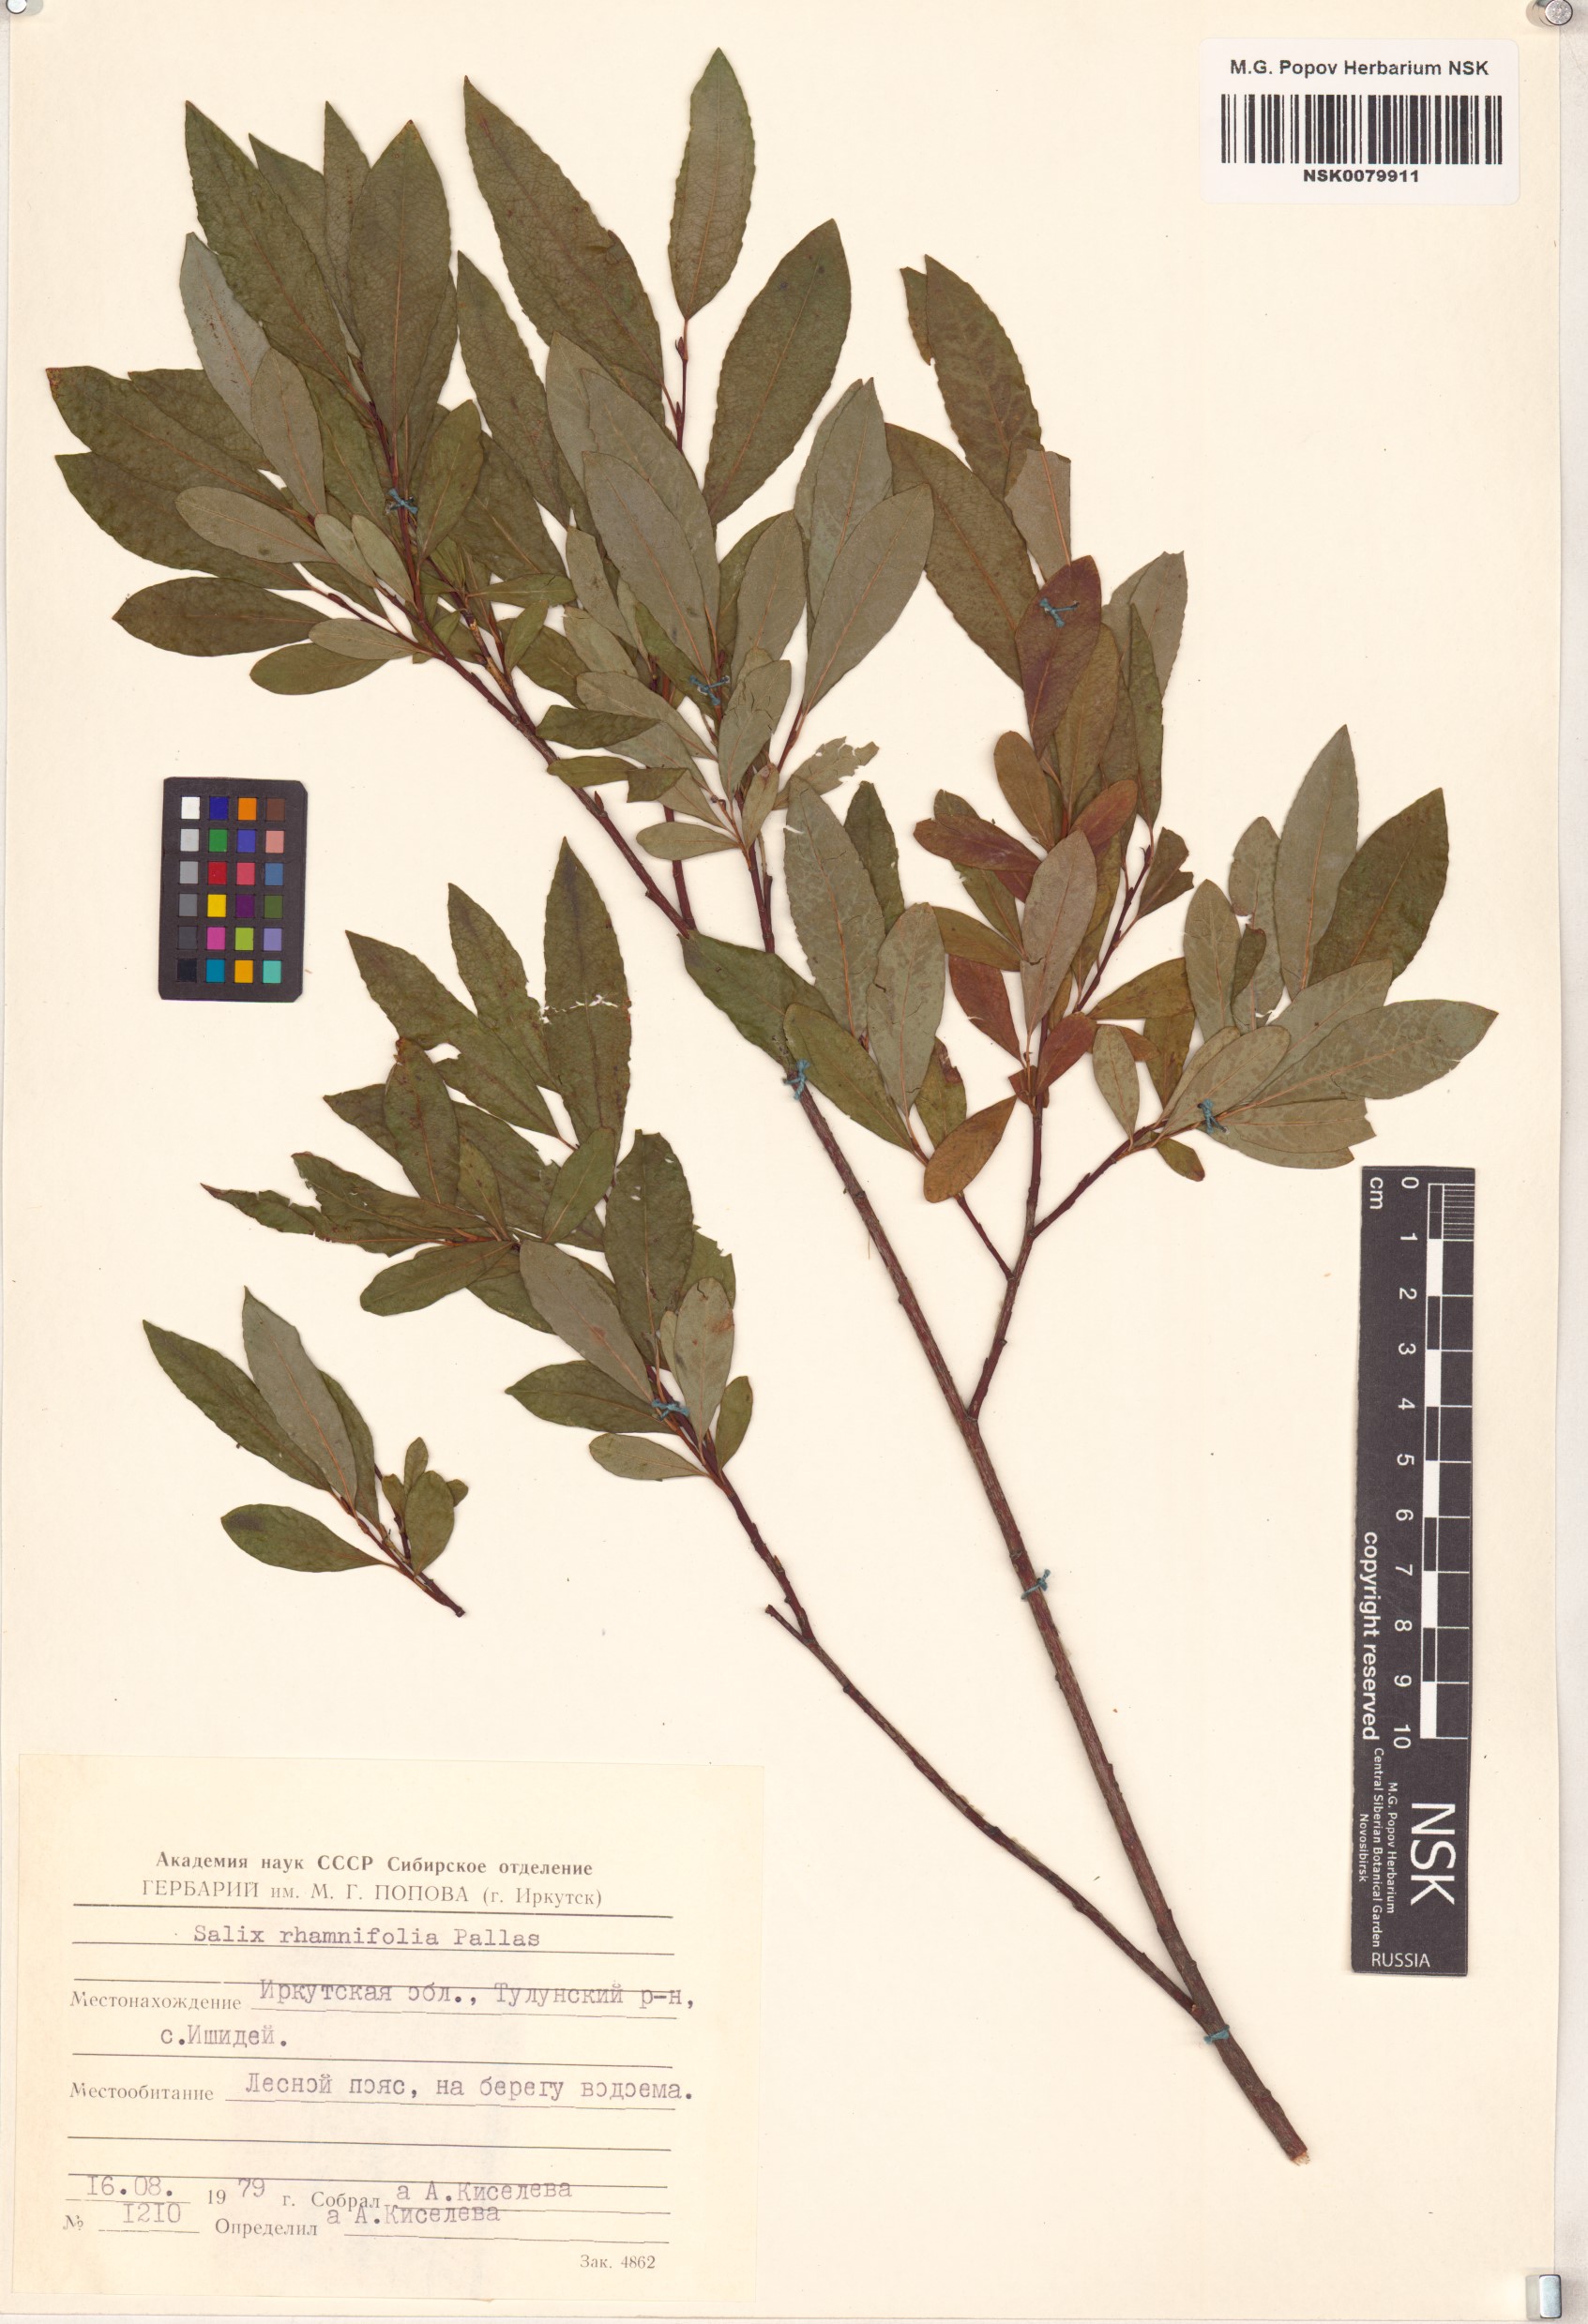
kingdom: Plantae
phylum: Tracheophyta
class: Magnoliopsida
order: Malpighiales
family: Salicaceae
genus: Salix
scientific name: Salix rhamnifolia
